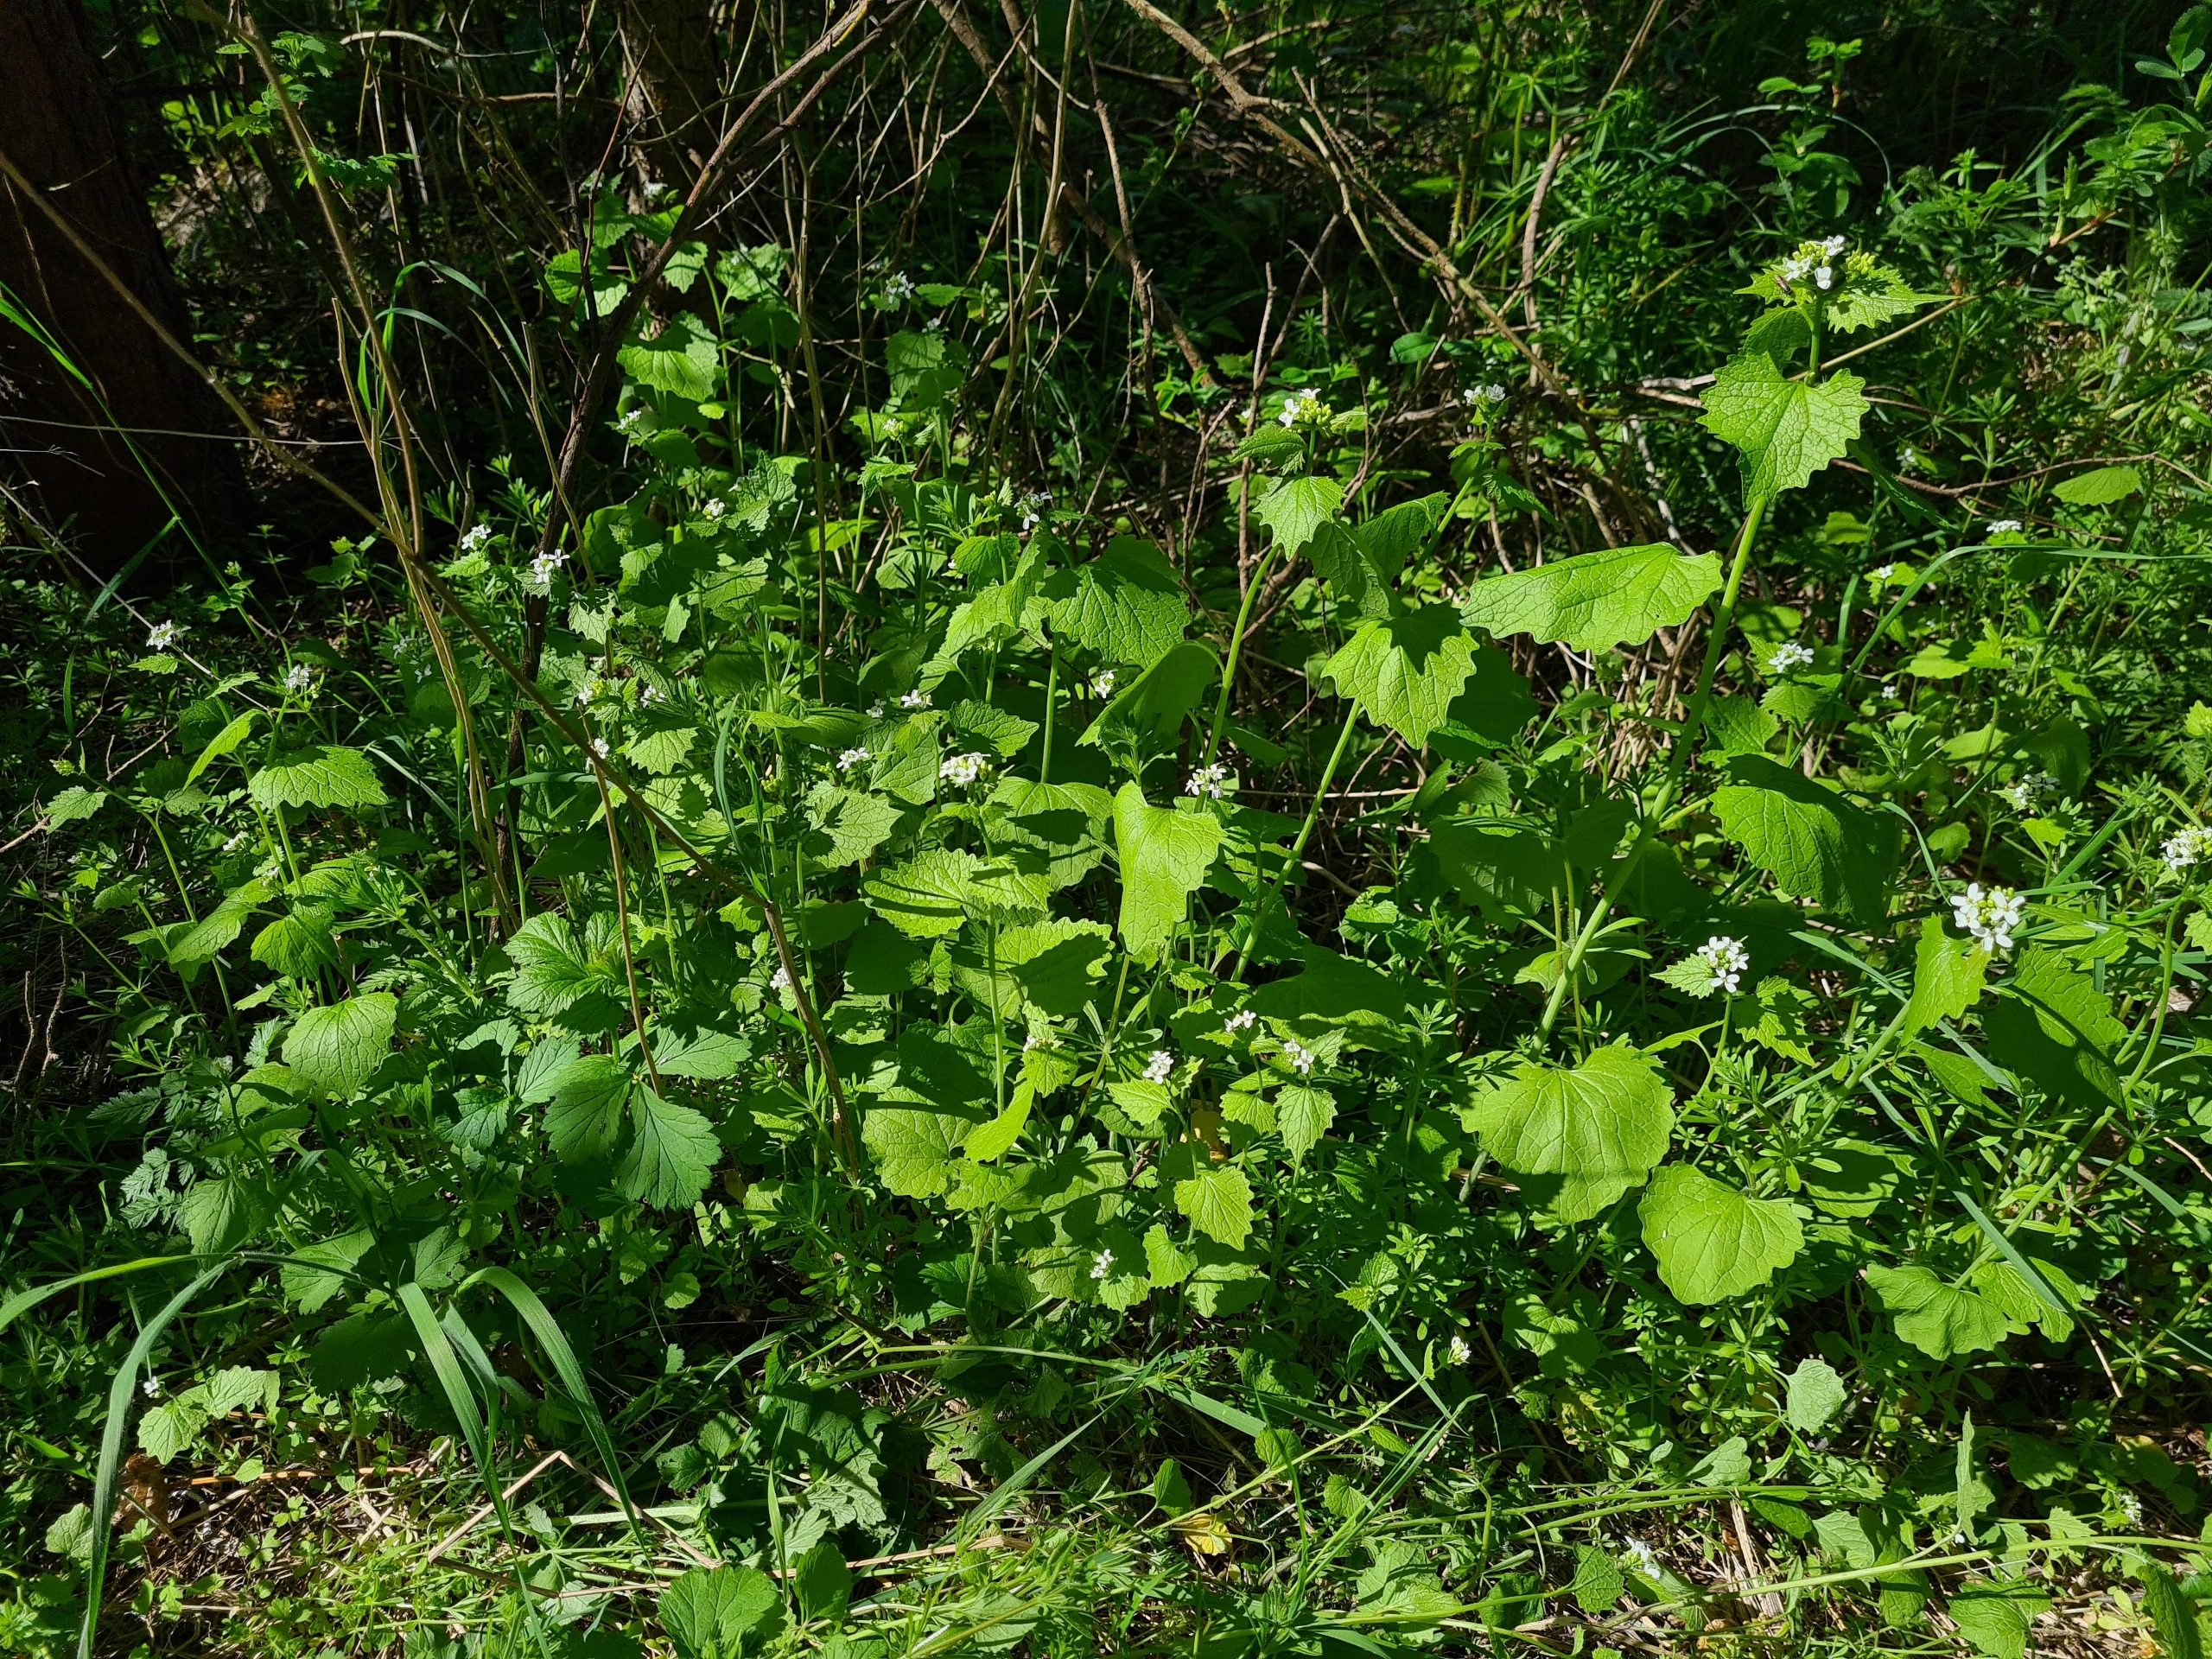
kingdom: Plantae
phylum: Tracheophyta
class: Magnoliopsida
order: Brassicales
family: Brassicaceae
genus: Alliaria
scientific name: Alliaria petiolata
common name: Løgkarse
